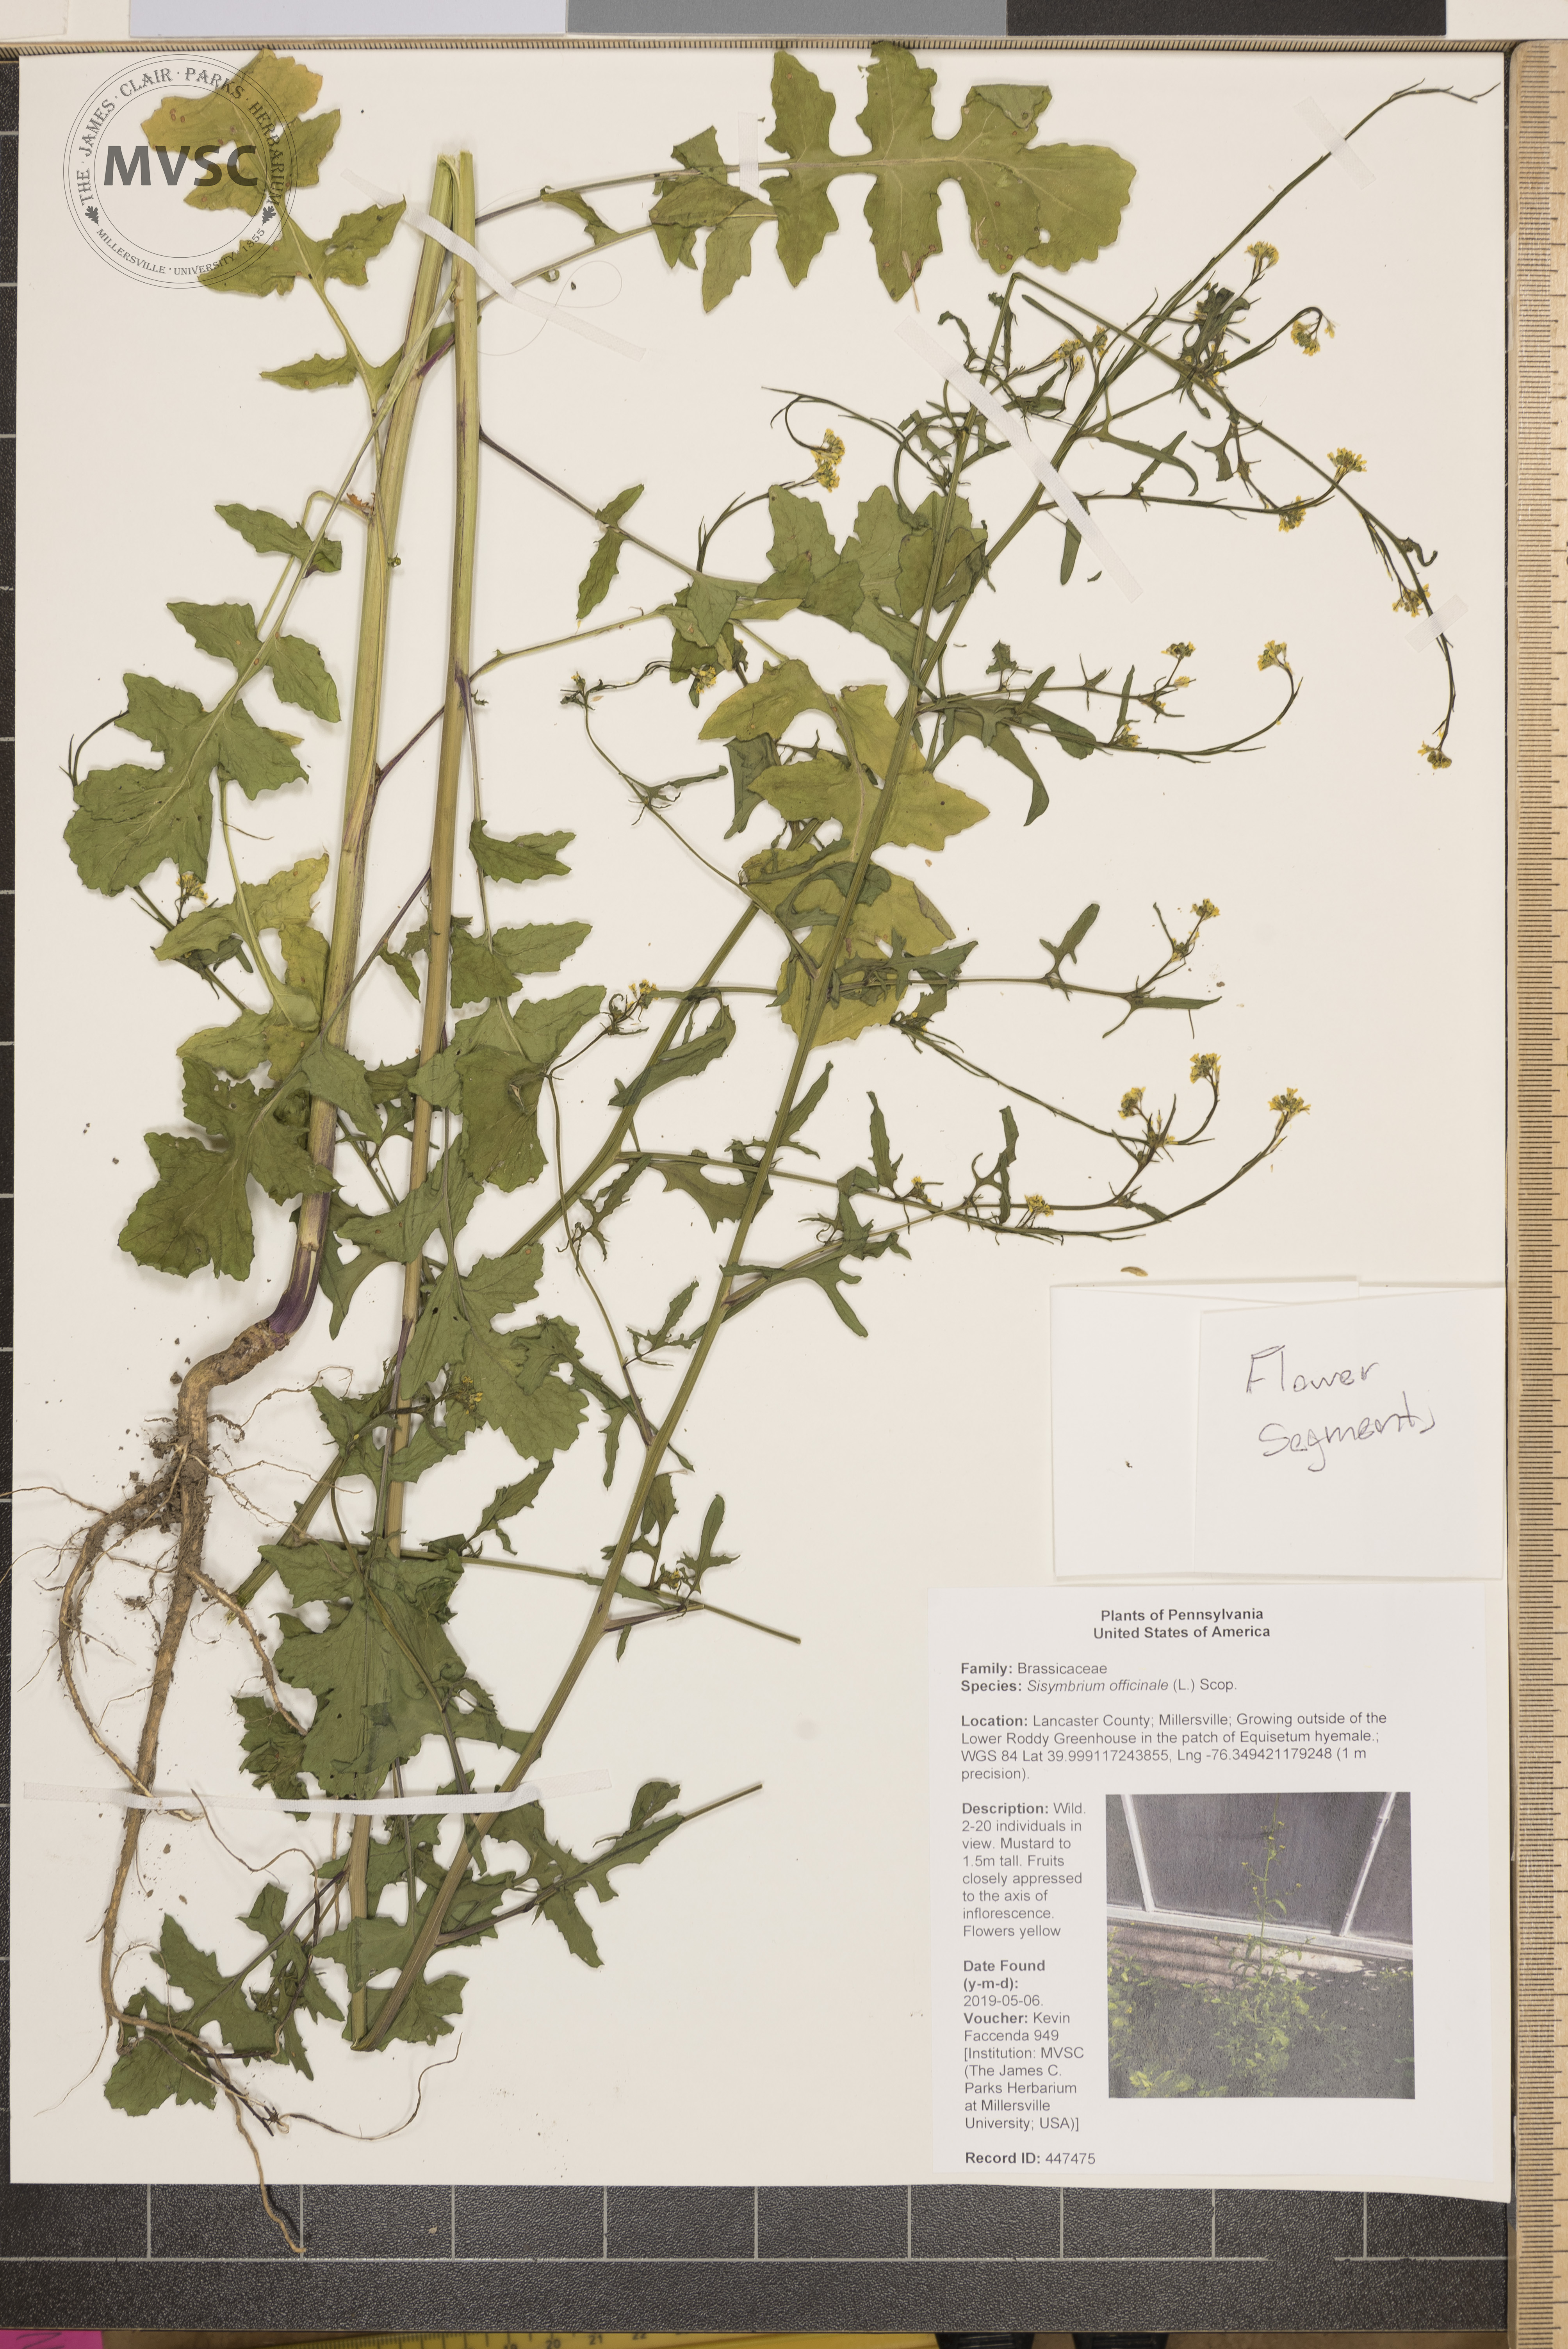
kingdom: Plantae
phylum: Tracheophyta
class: Magnoliopsida
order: Brassicales
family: Brassicaceae
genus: Sisymbrium
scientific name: Sisymbrium officinale
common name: Hedge mustard
